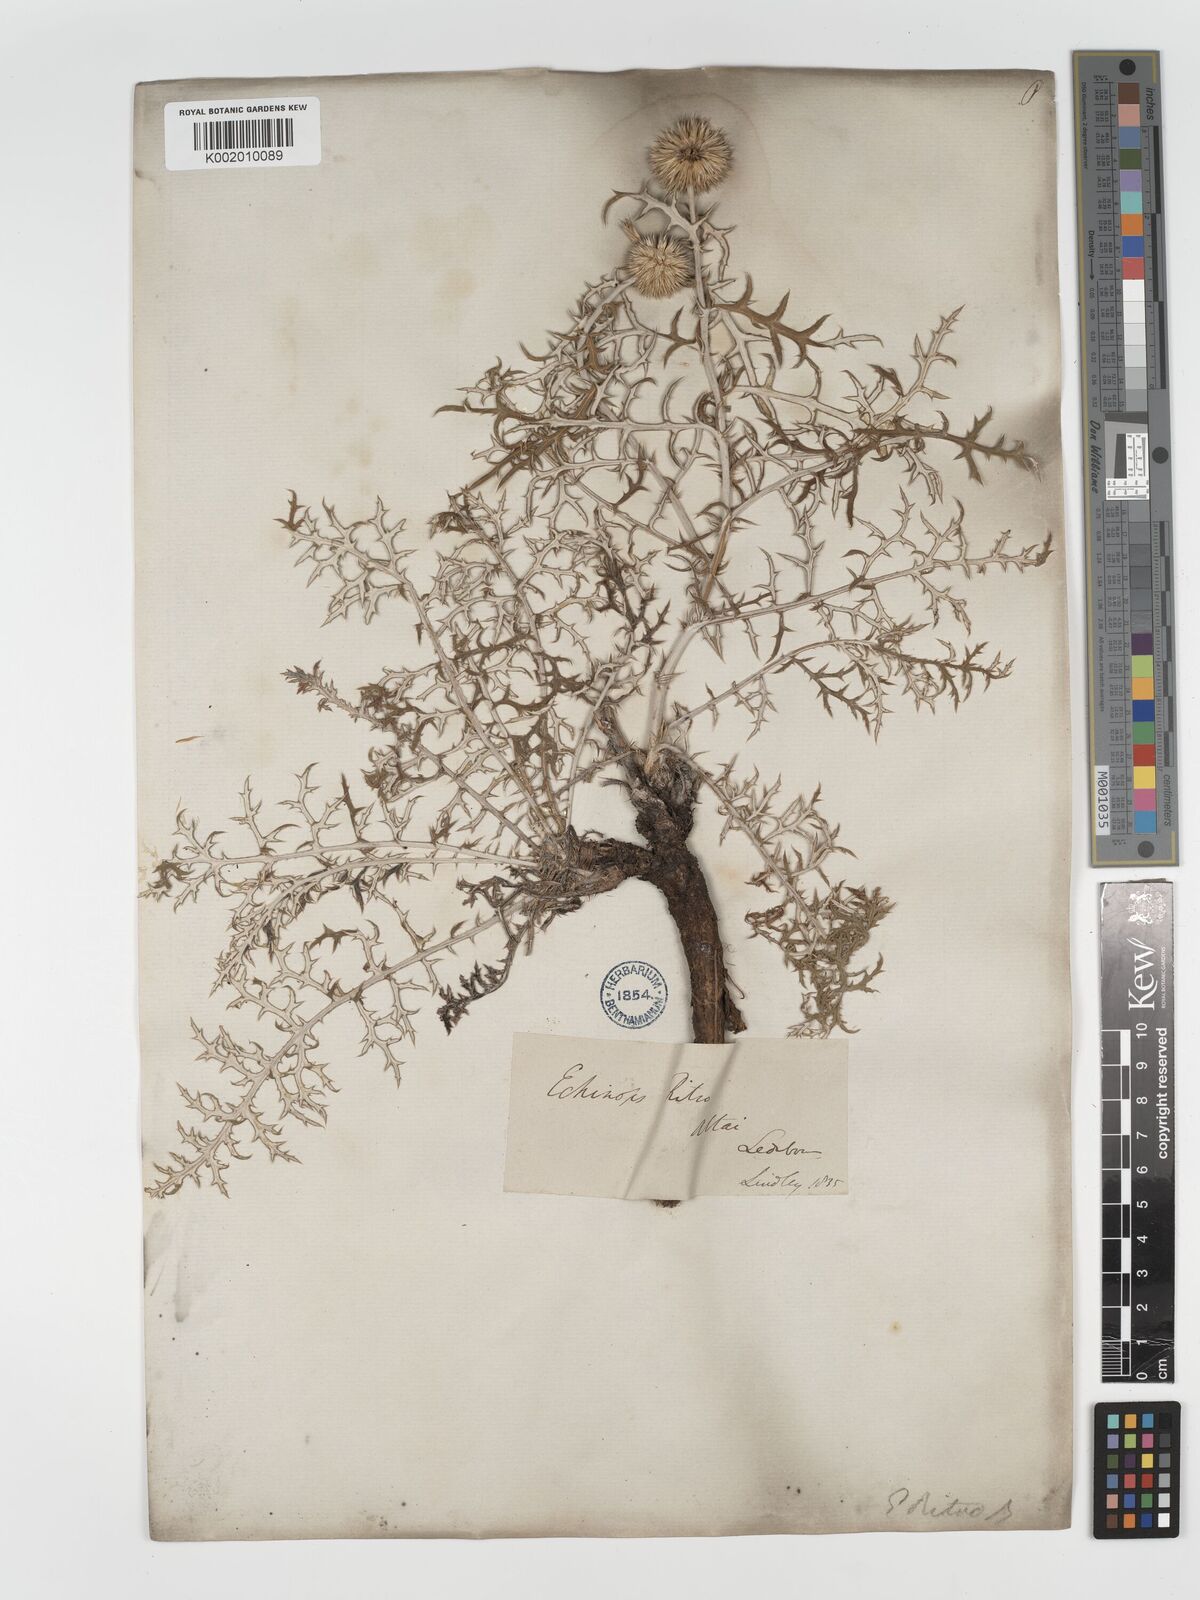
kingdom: Plantae
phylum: Tracheophyta
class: Magnoliopsida
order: Asterales
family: Asteraceae
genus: Echinops
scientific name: Echinops bannaticus
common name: Blue globe-thistle
